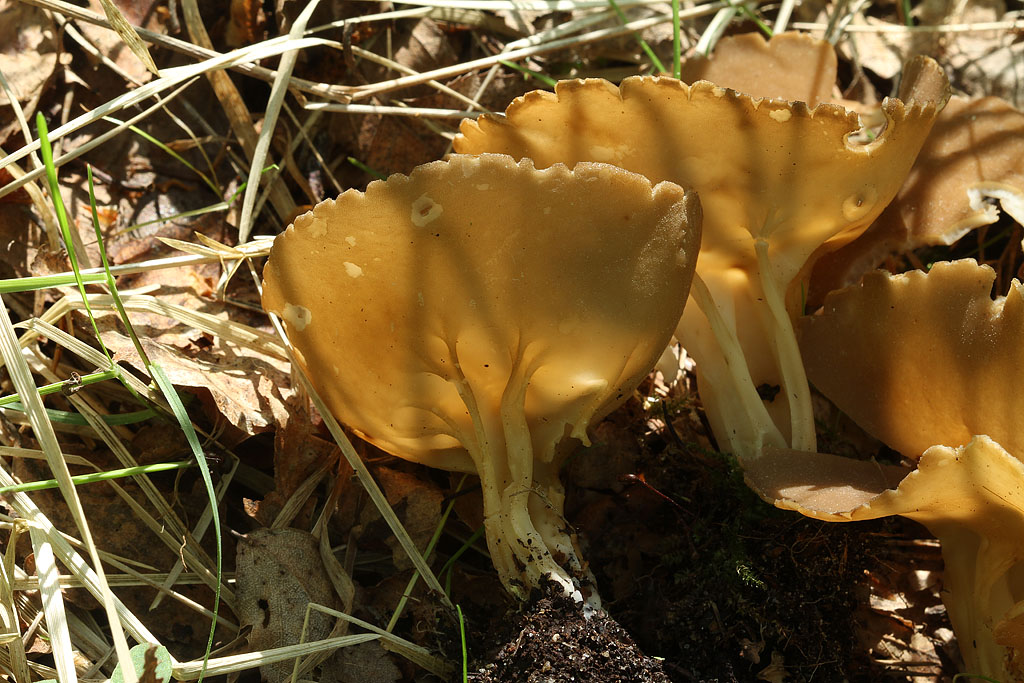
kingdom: Fungi
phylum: Ascomycota
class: Pezizomycetes
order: Pezizales
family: Helvellaceae
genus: Helvella
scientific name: Helvella acetabulum
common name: pokal-foldhat
